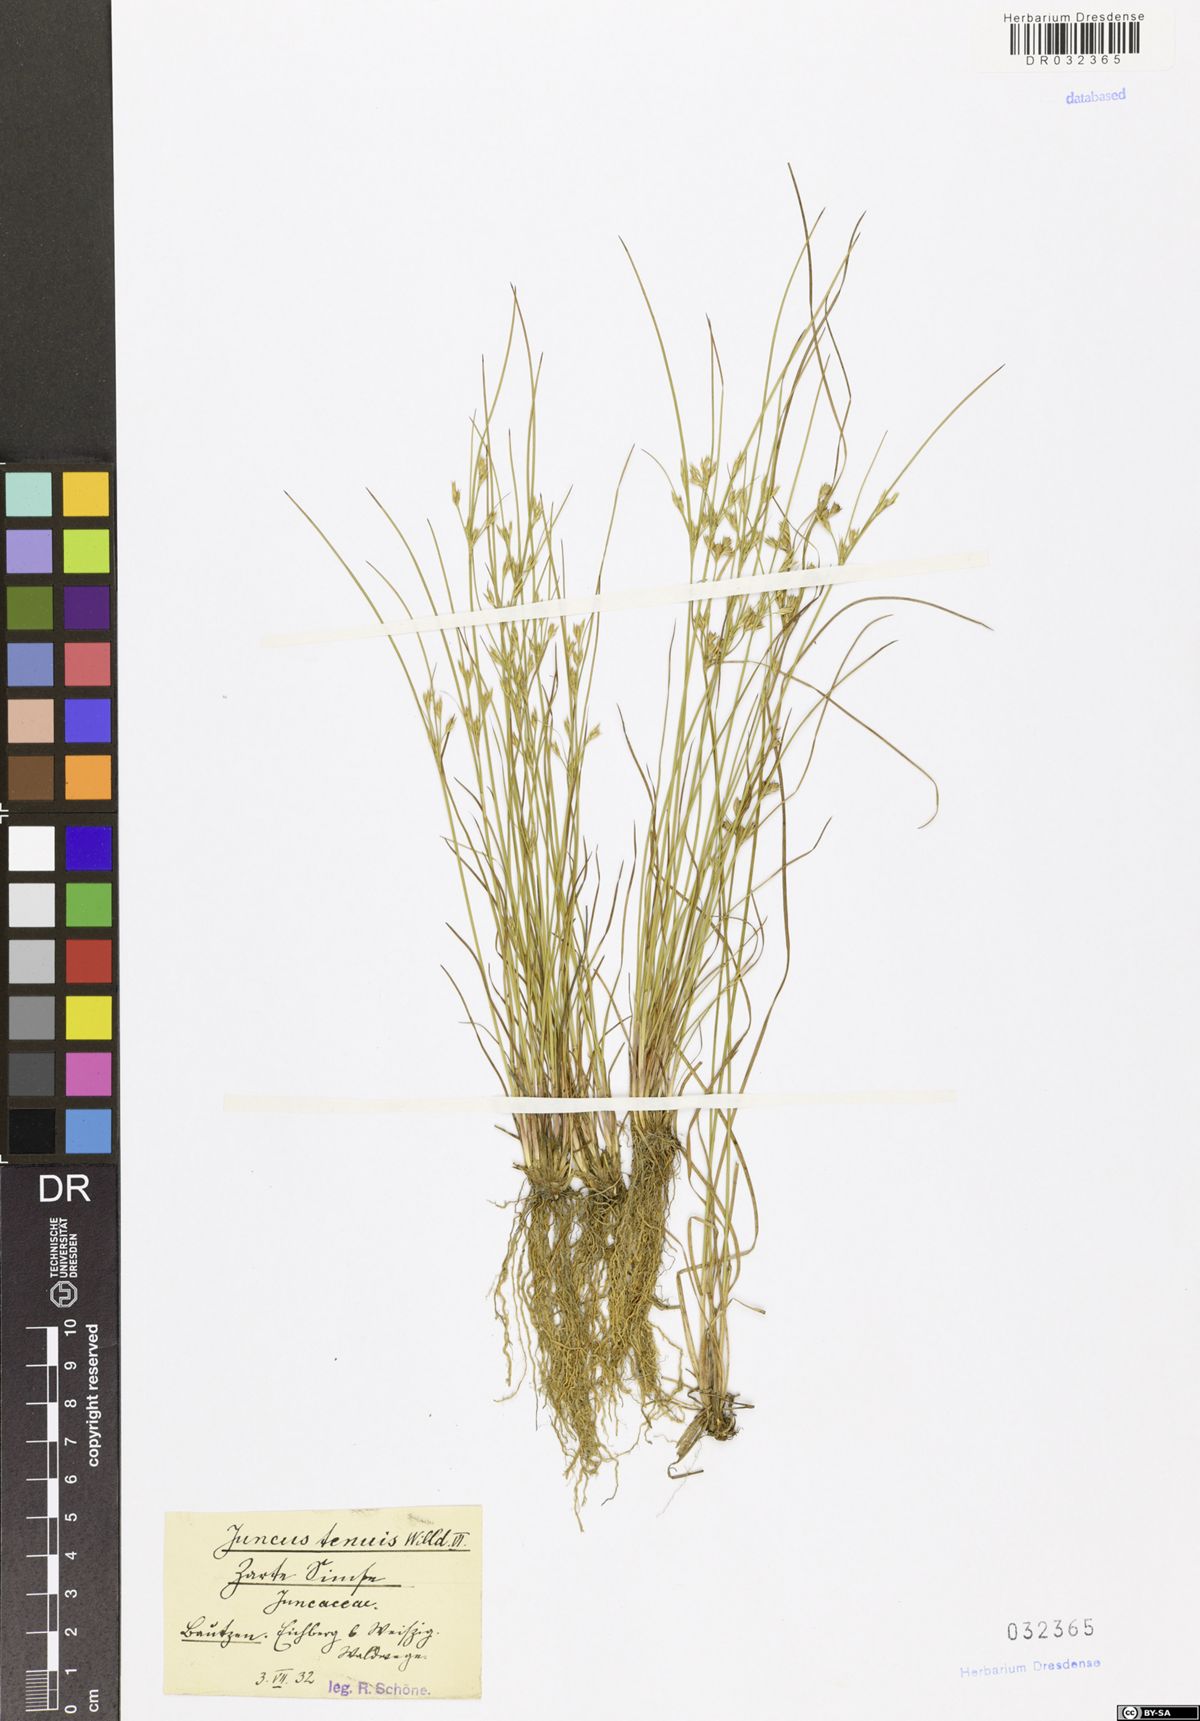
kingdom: Plantae
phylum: Tracheophyta
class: Liliopsida
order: Poales
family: Juncaceae
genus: Juncus
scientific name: Juncus tenuis
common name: Slender rush
